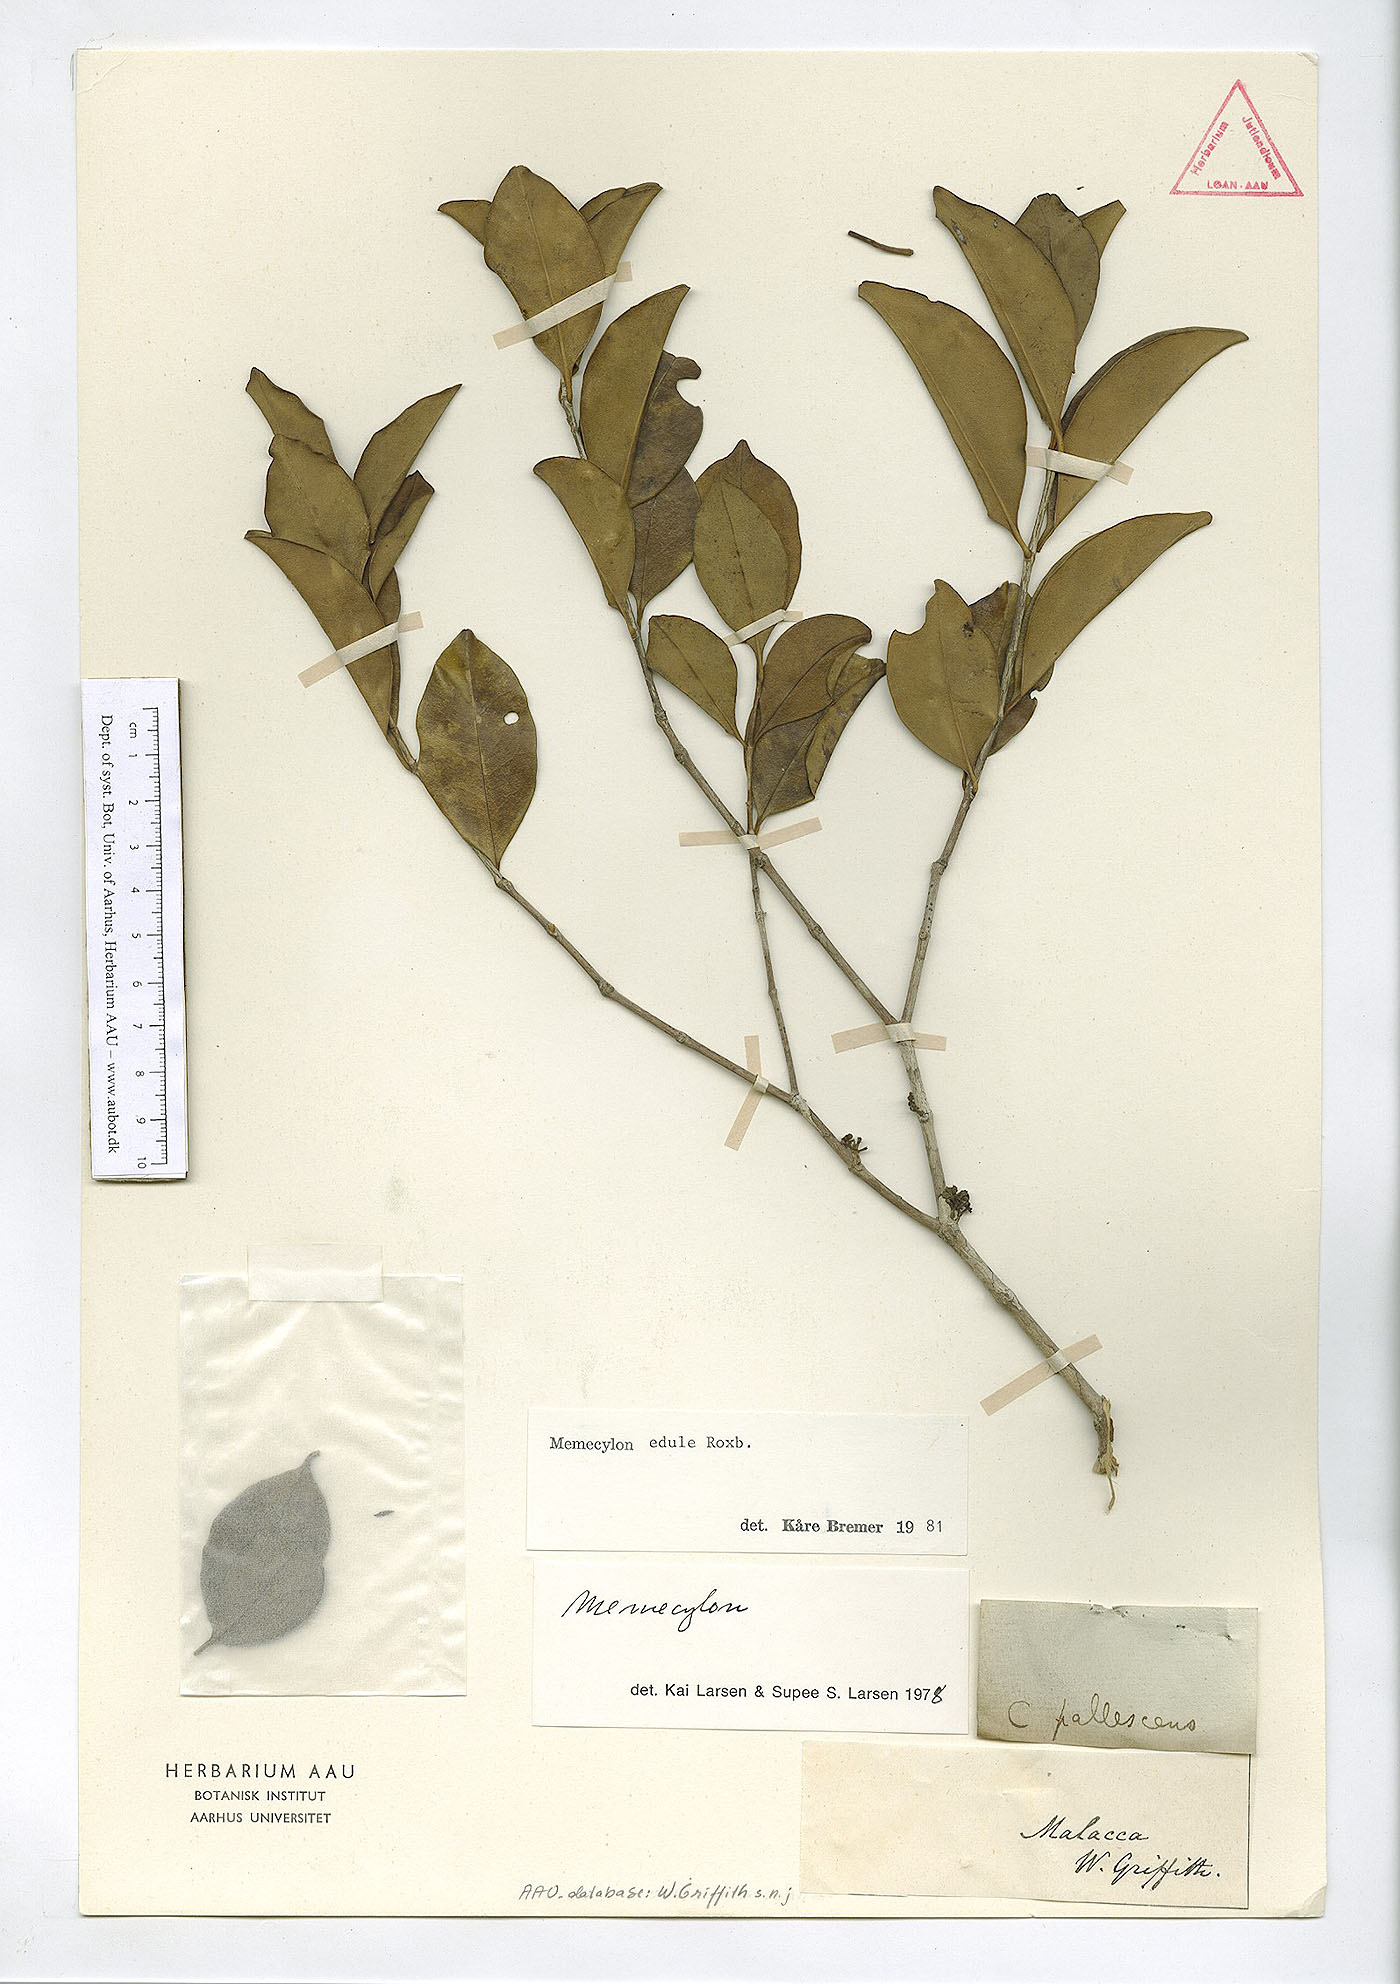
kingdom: Plantae
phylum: Tracheophyta
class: Magnoliopsida
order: Myrtales
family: Melastomataceae
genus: Memecylon
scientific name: Memecylon edule
